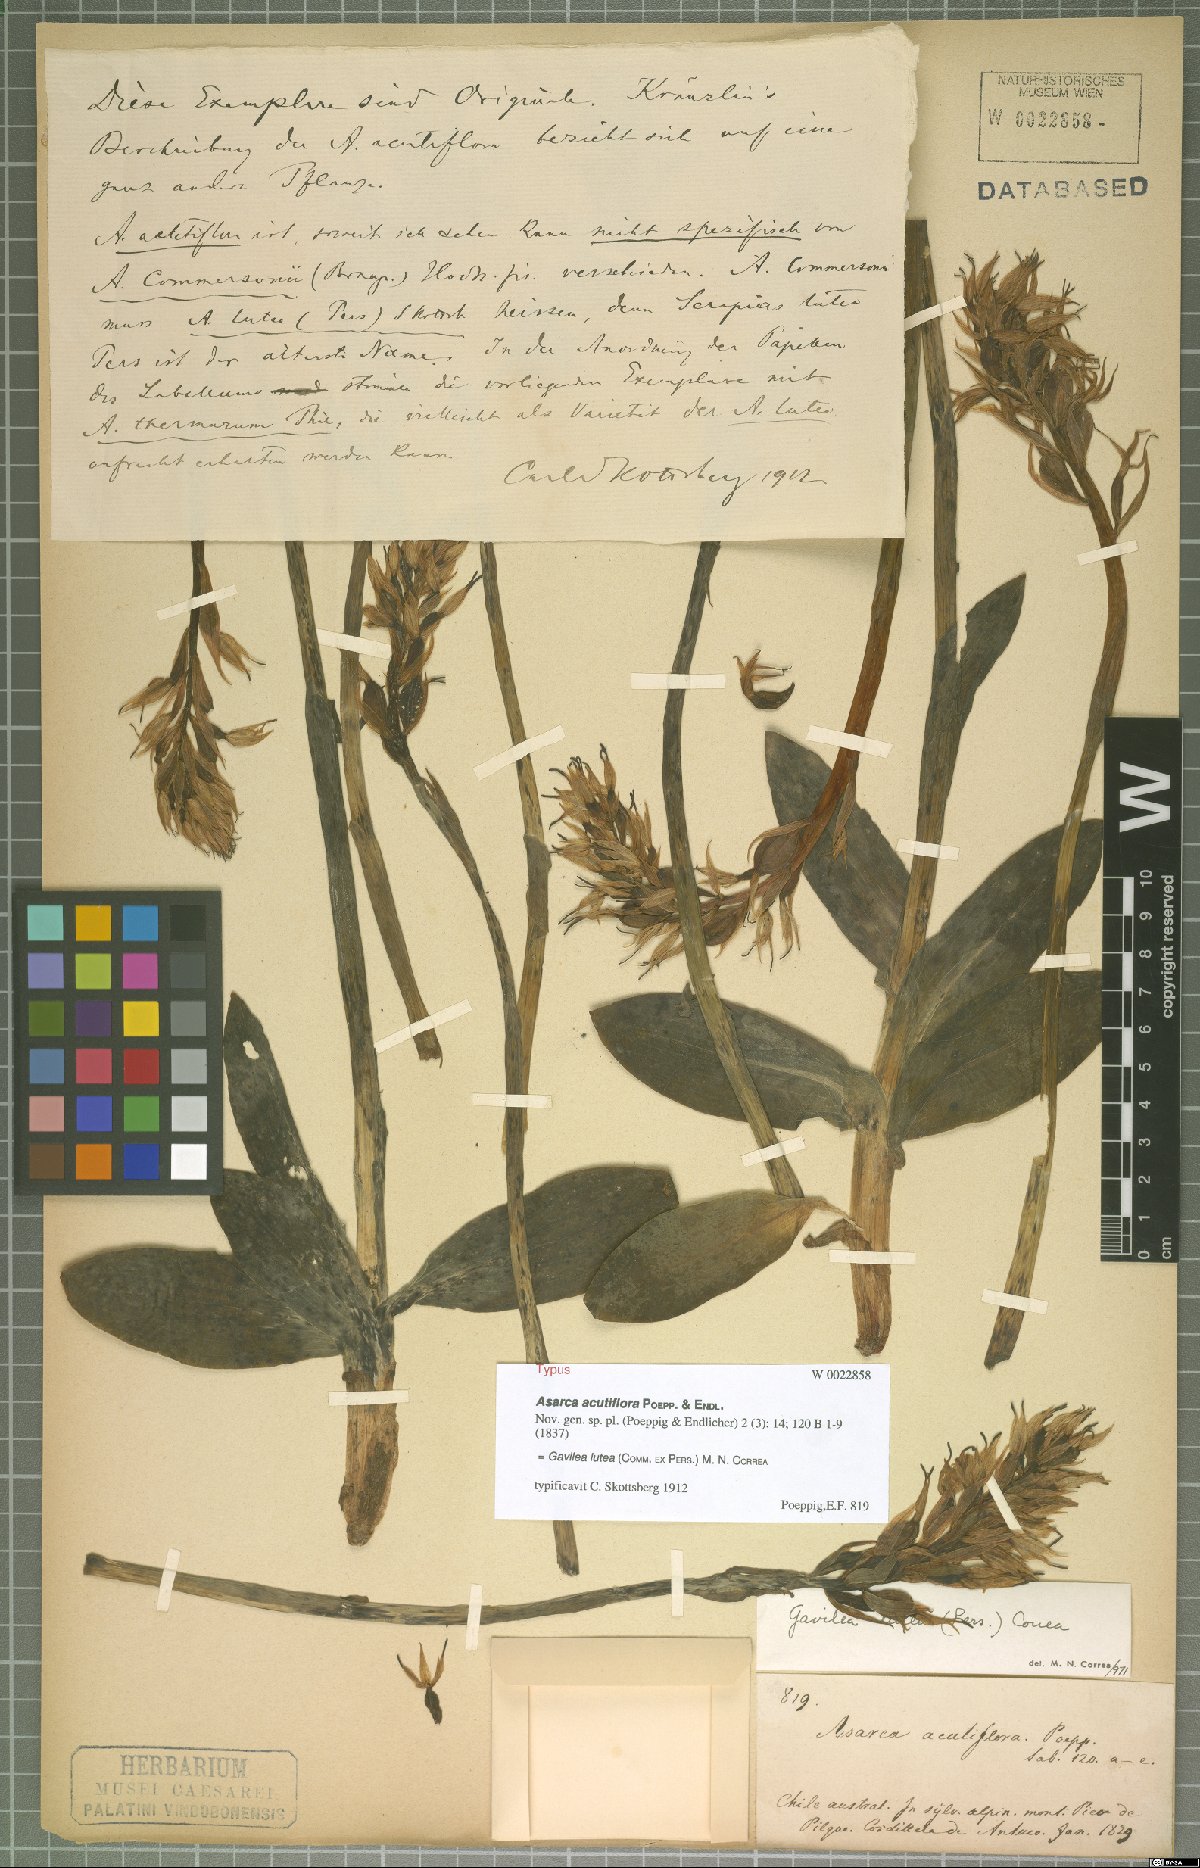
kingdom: Plantae
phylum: Tracheophyta
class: Liliopsida
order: Asparagales
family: Orchidaceae
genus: Gavilea
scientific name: Gavilea lutea
